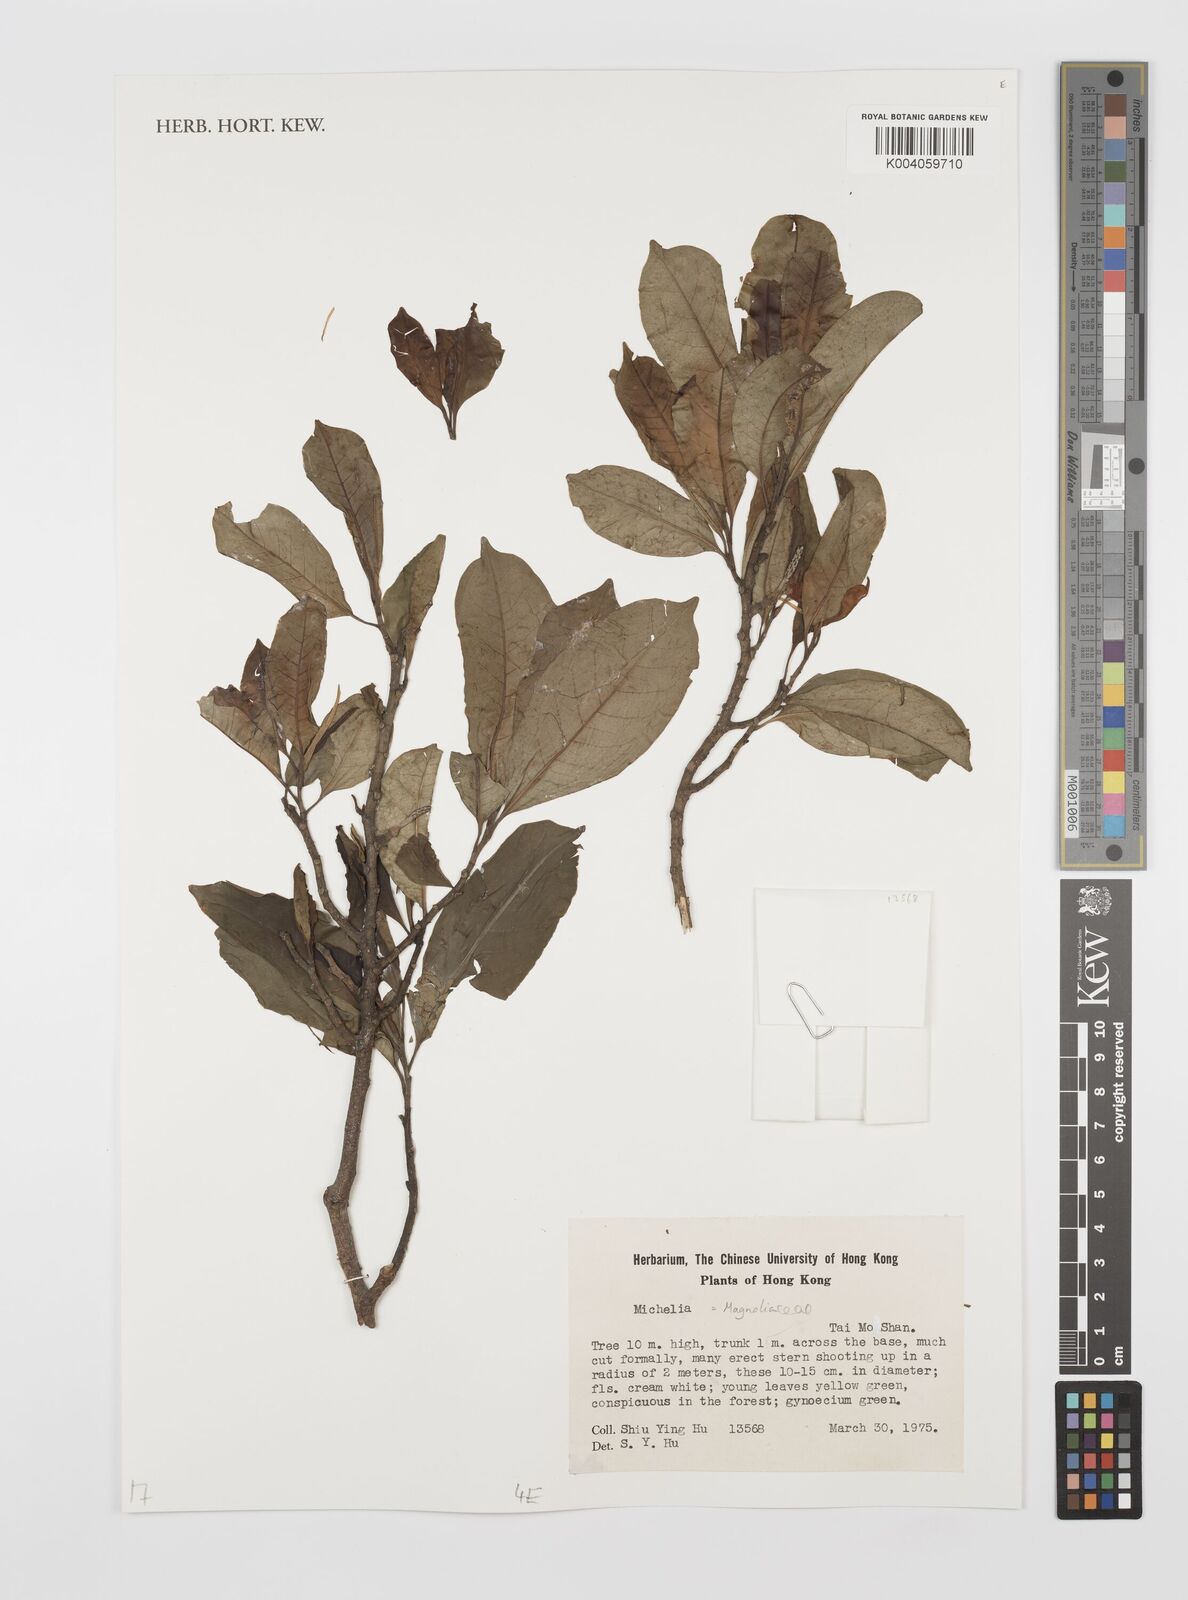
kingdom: Plantae
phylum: Tracheophyta
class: Magnoliopsida
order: Magnoliales
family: Magnoliaceae
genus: Magnolia
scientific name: Magnolia
